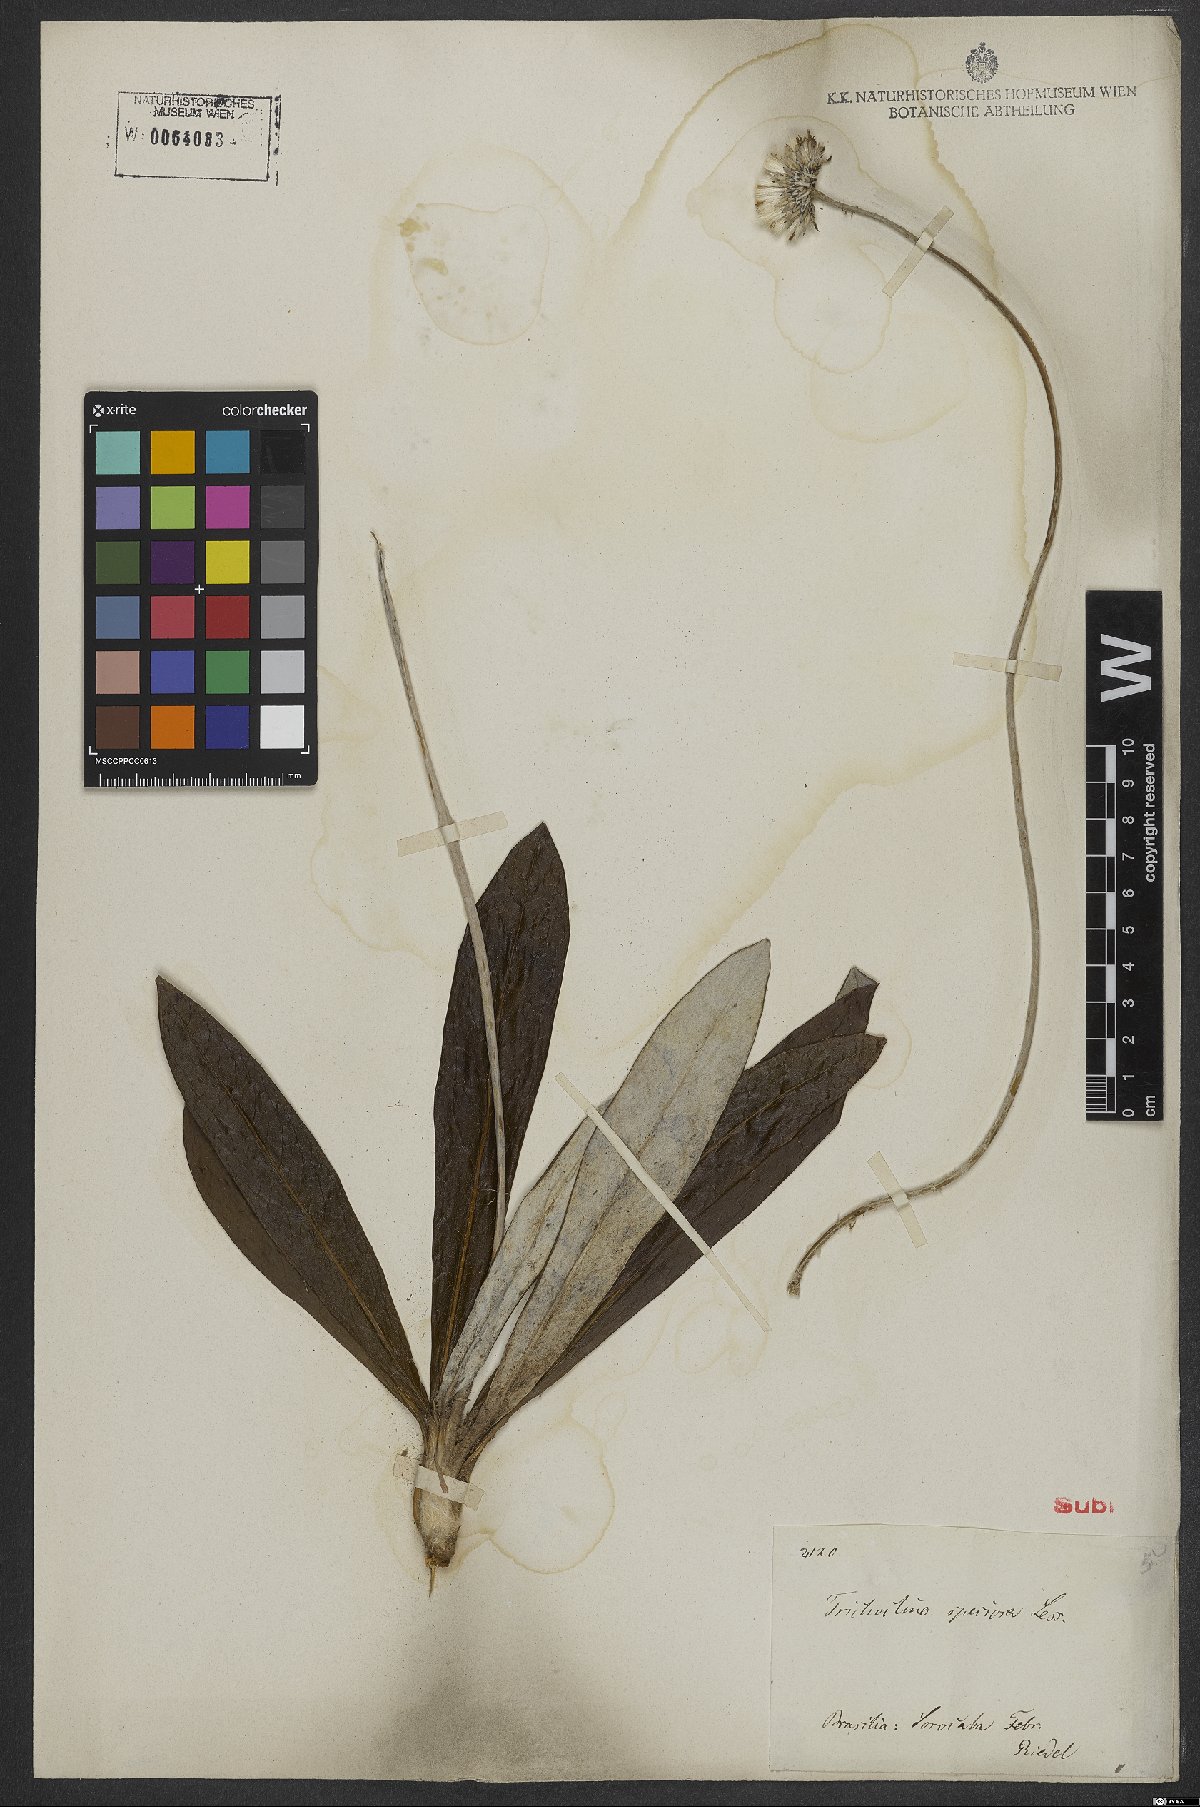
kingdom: Plantae
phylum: Tracheophyta
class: Magnoliopsida
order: Asterales
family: Asteraceae
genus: Trichocline
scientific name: Trichocline speciosa
